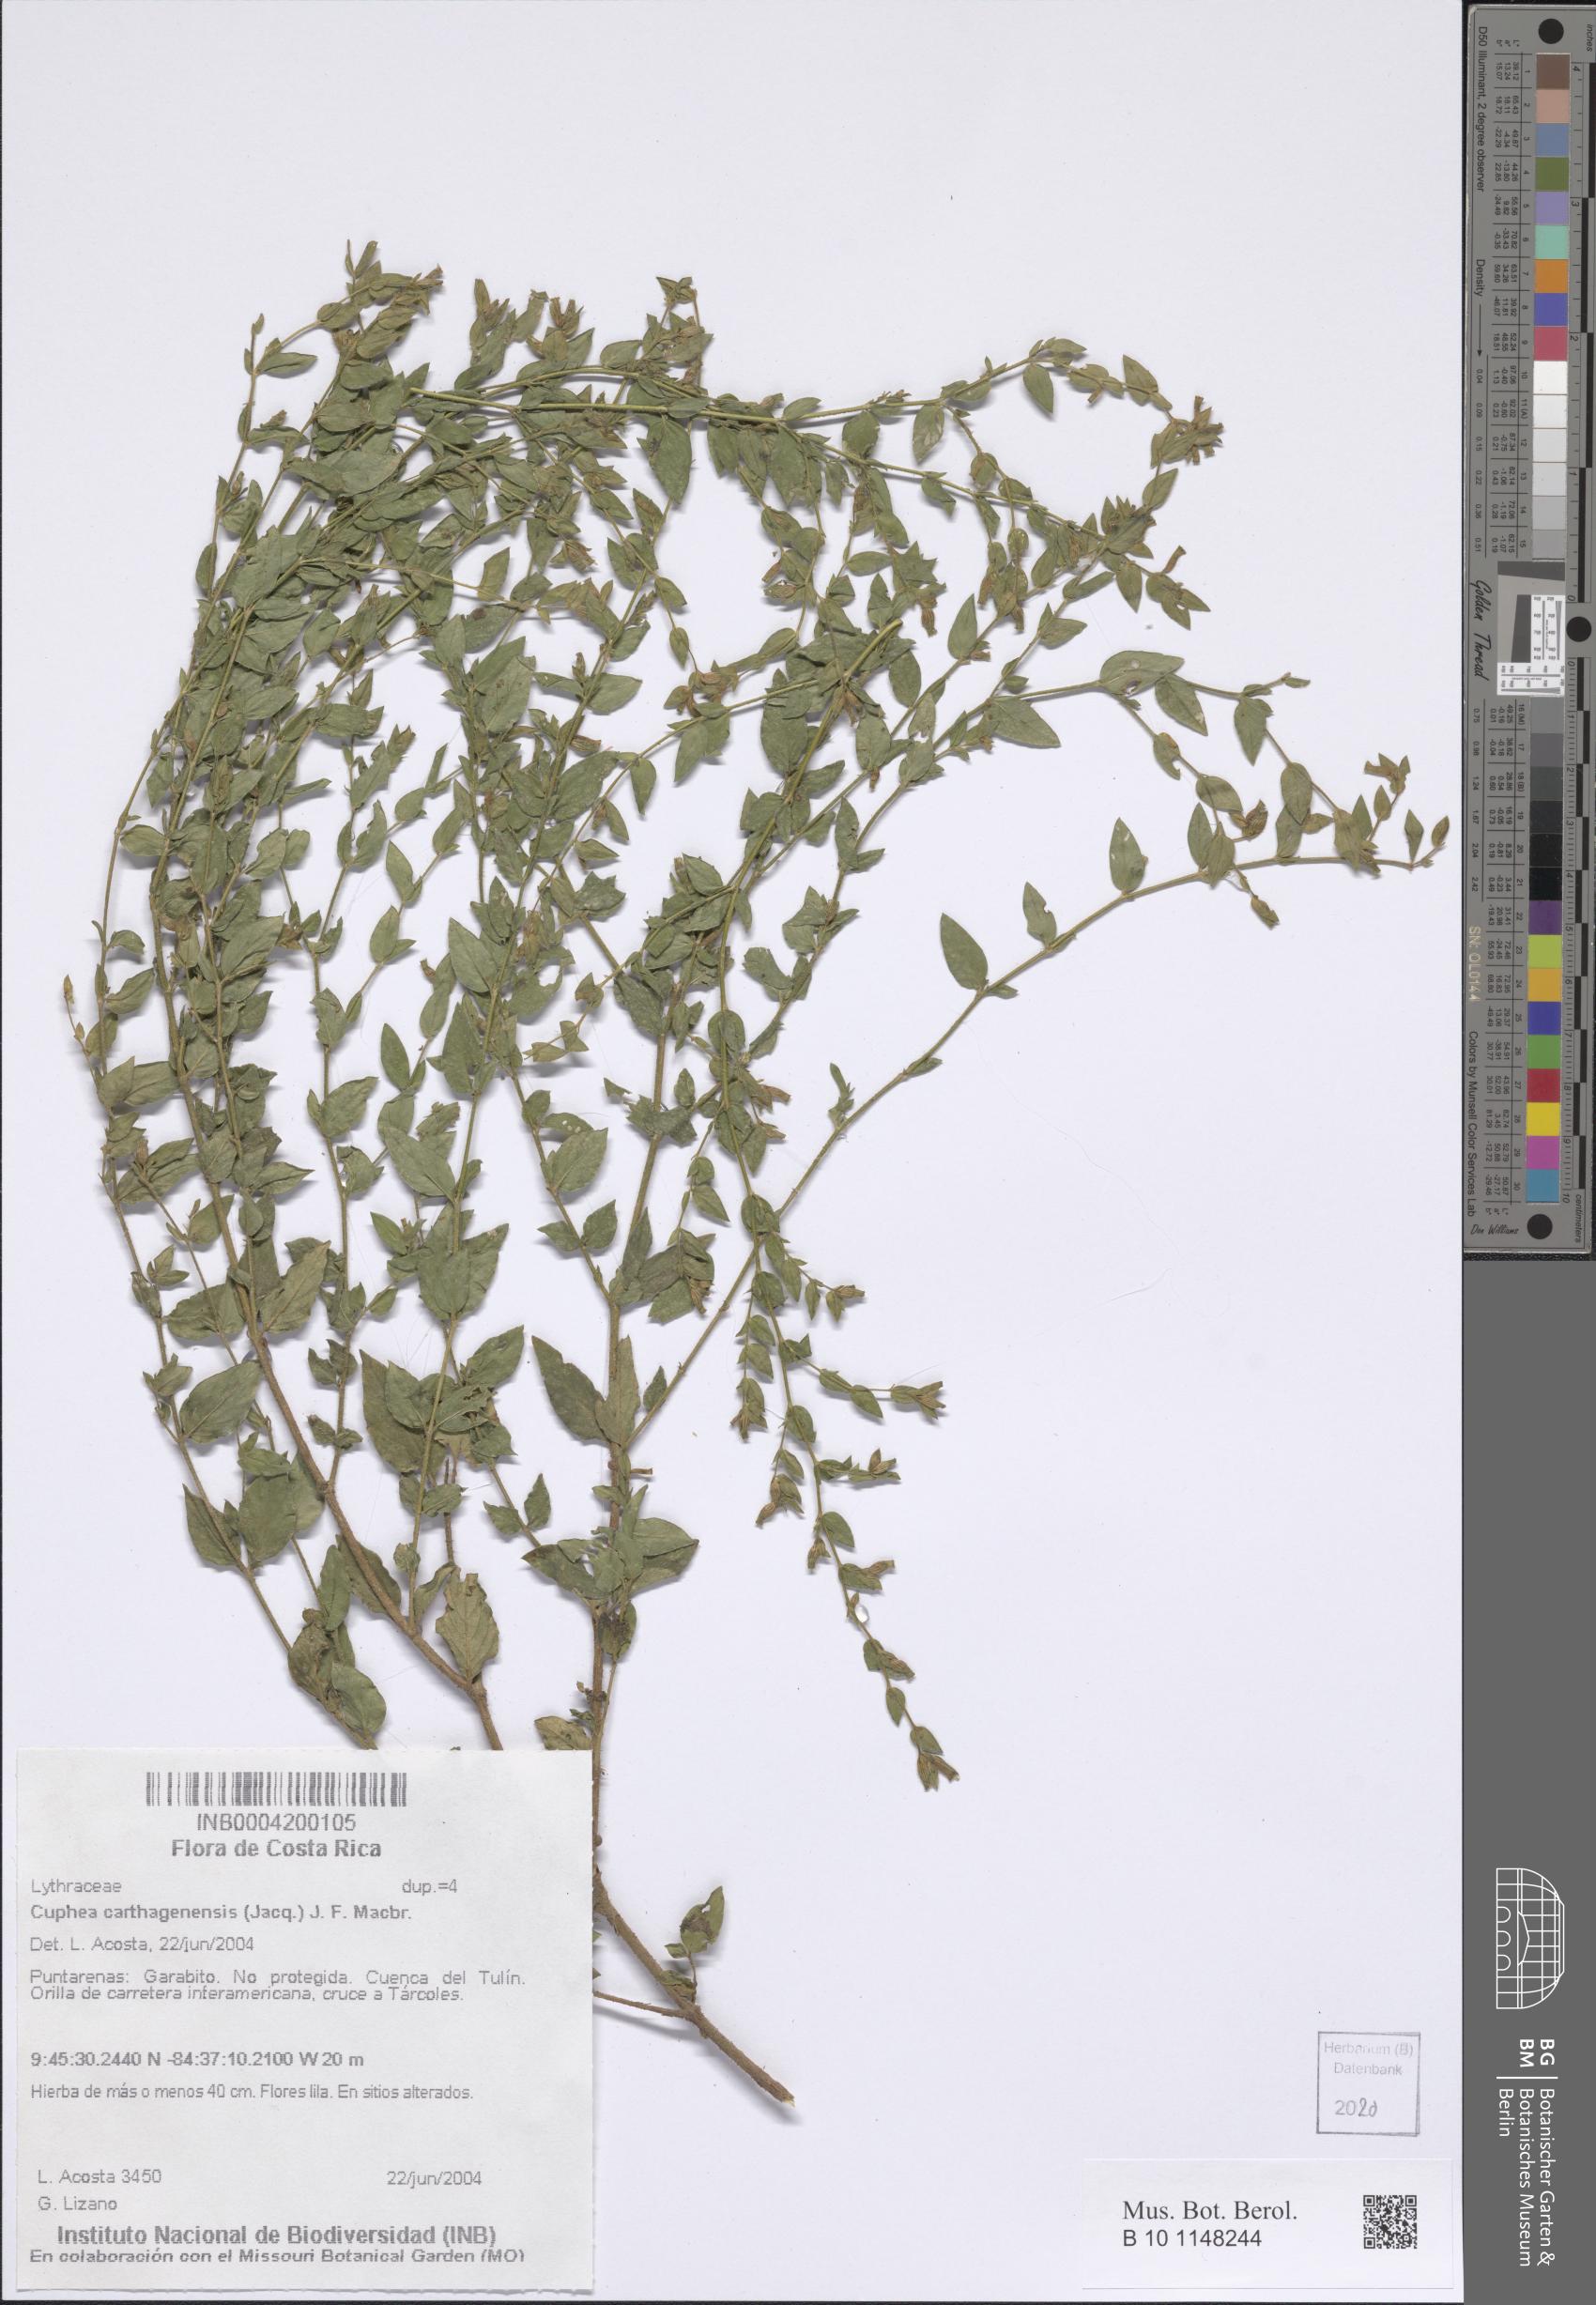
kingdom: Plantae
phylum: Tracheophyta
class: Magnoliopsida
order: Myrtales
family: Lythraceae
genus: Cuphea
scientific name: Cuphea carthagenensis
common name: Colombian waxweed
